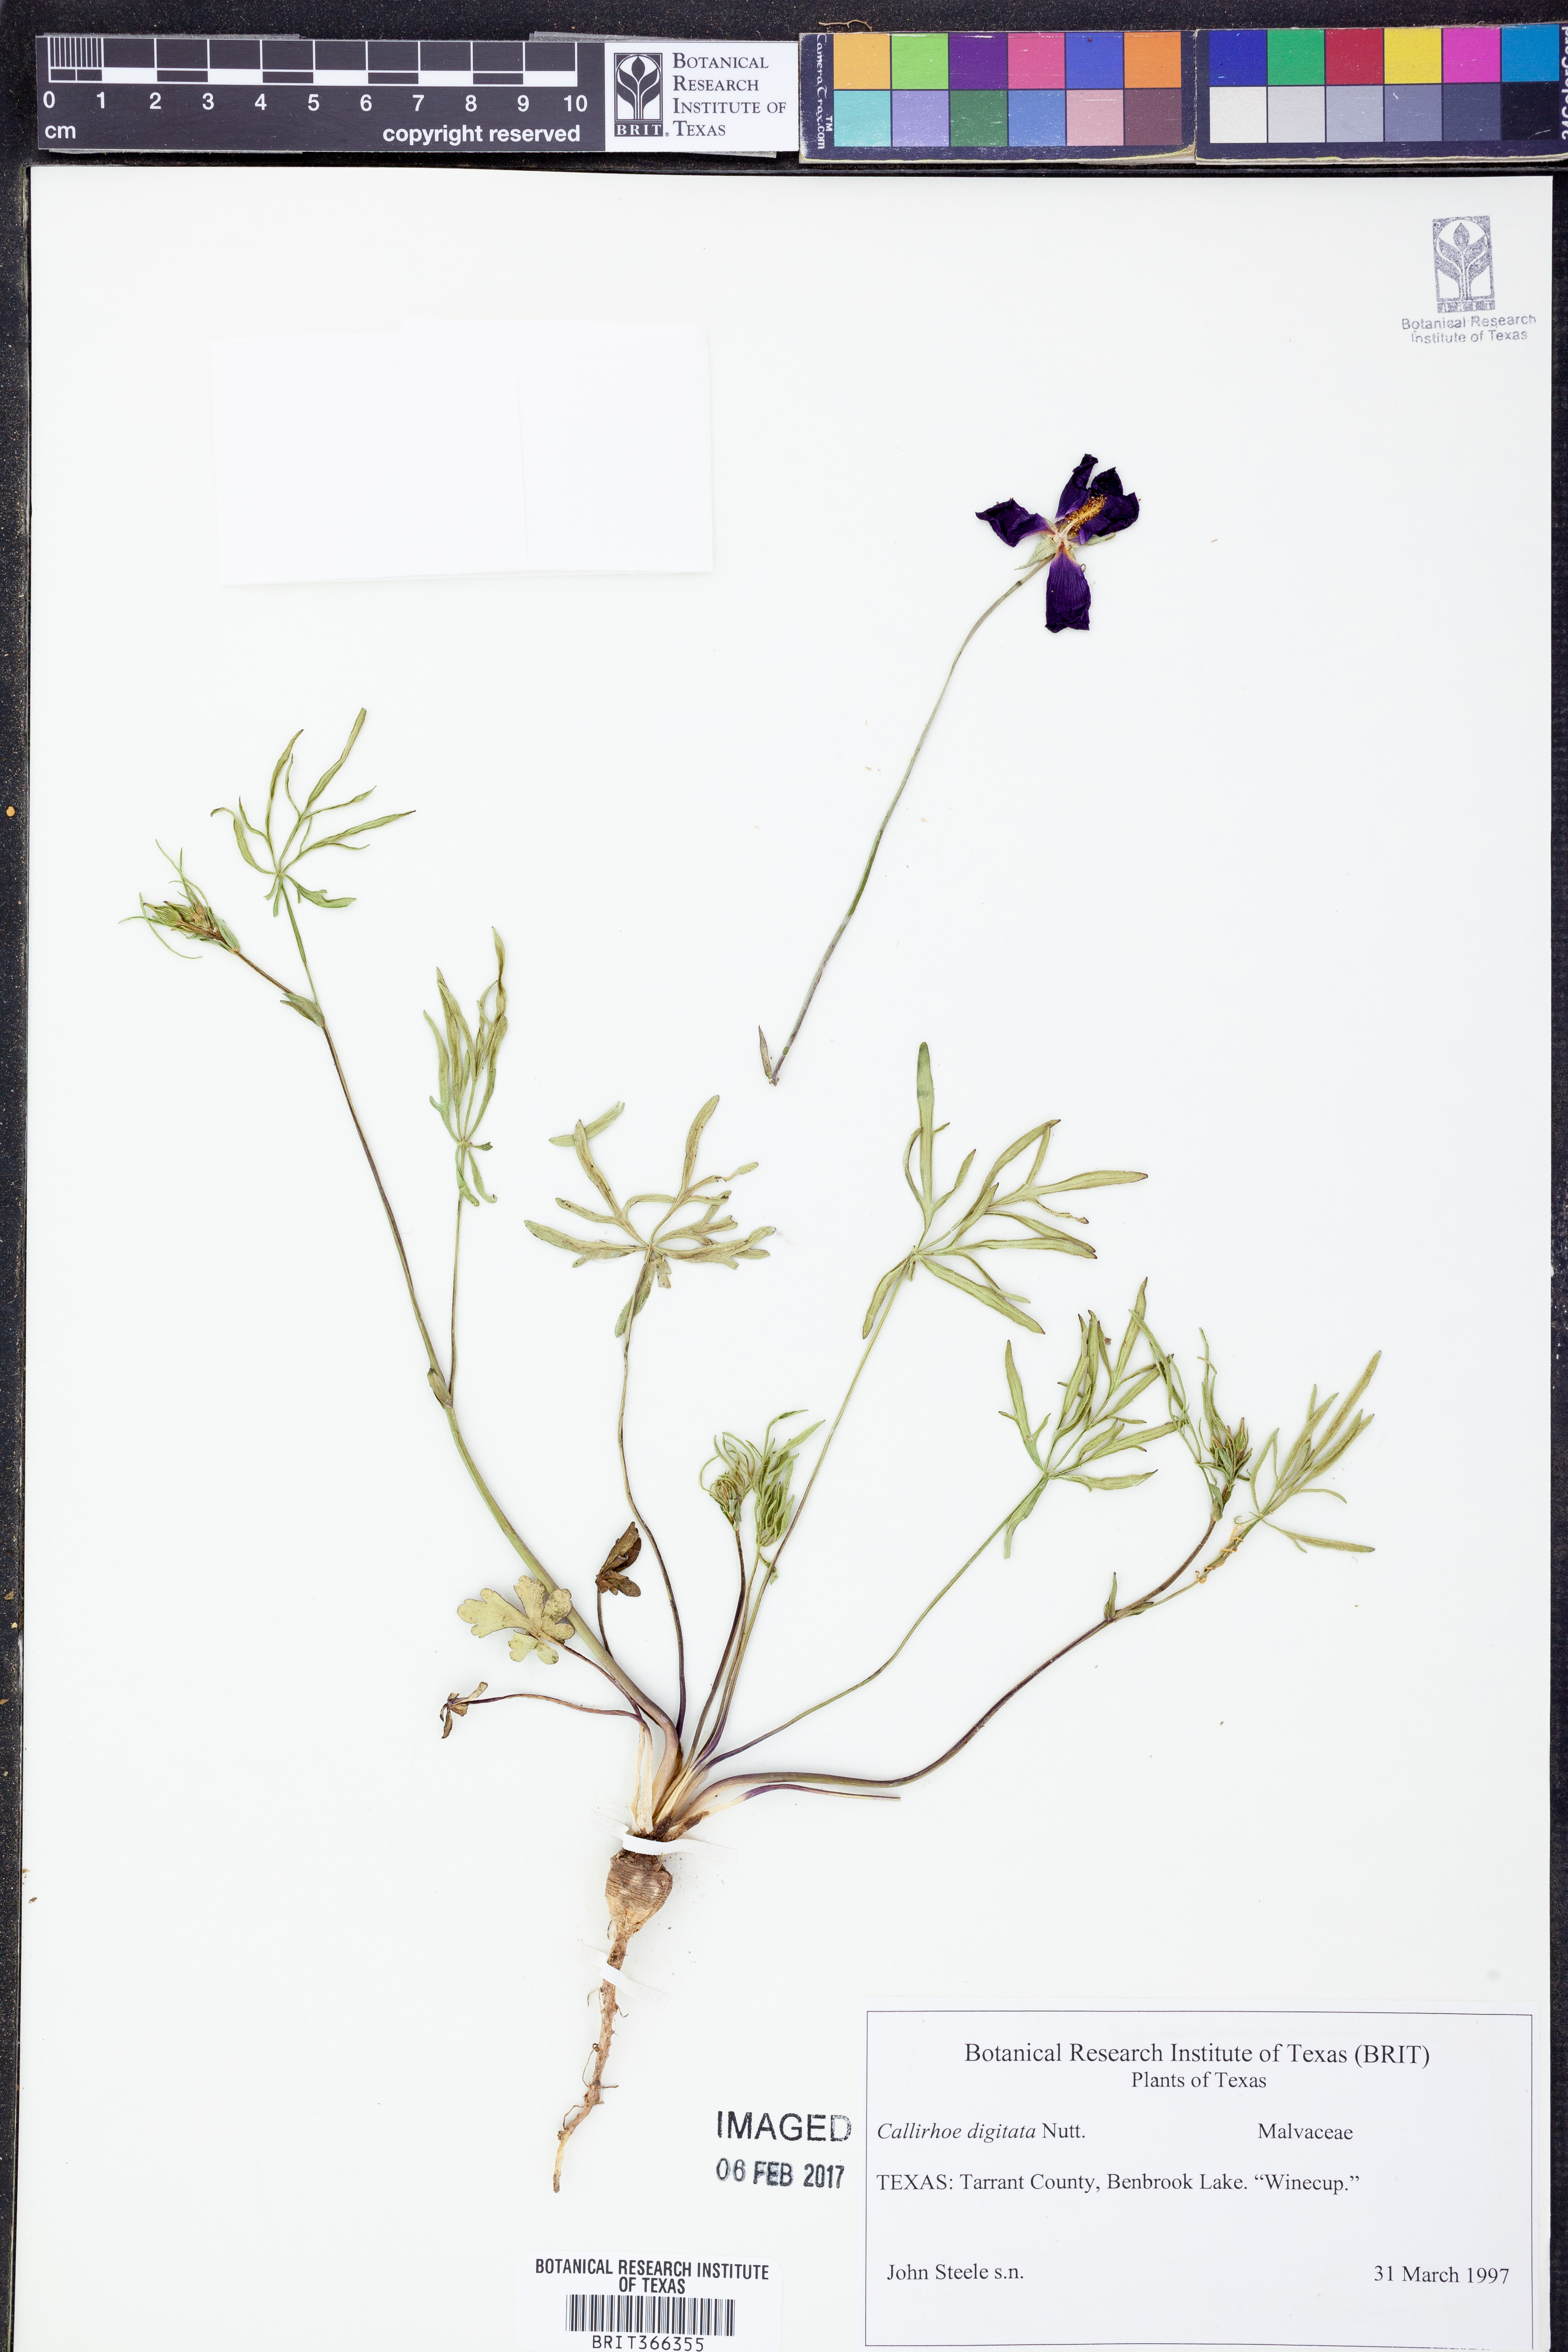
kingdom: Plantae
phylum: Tracheophyta
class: Magnoliopsida
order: Malvales
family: Malvaceae
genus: Callirhoe
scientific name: Callirhoe digitata
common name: Finger poppy-mallow
